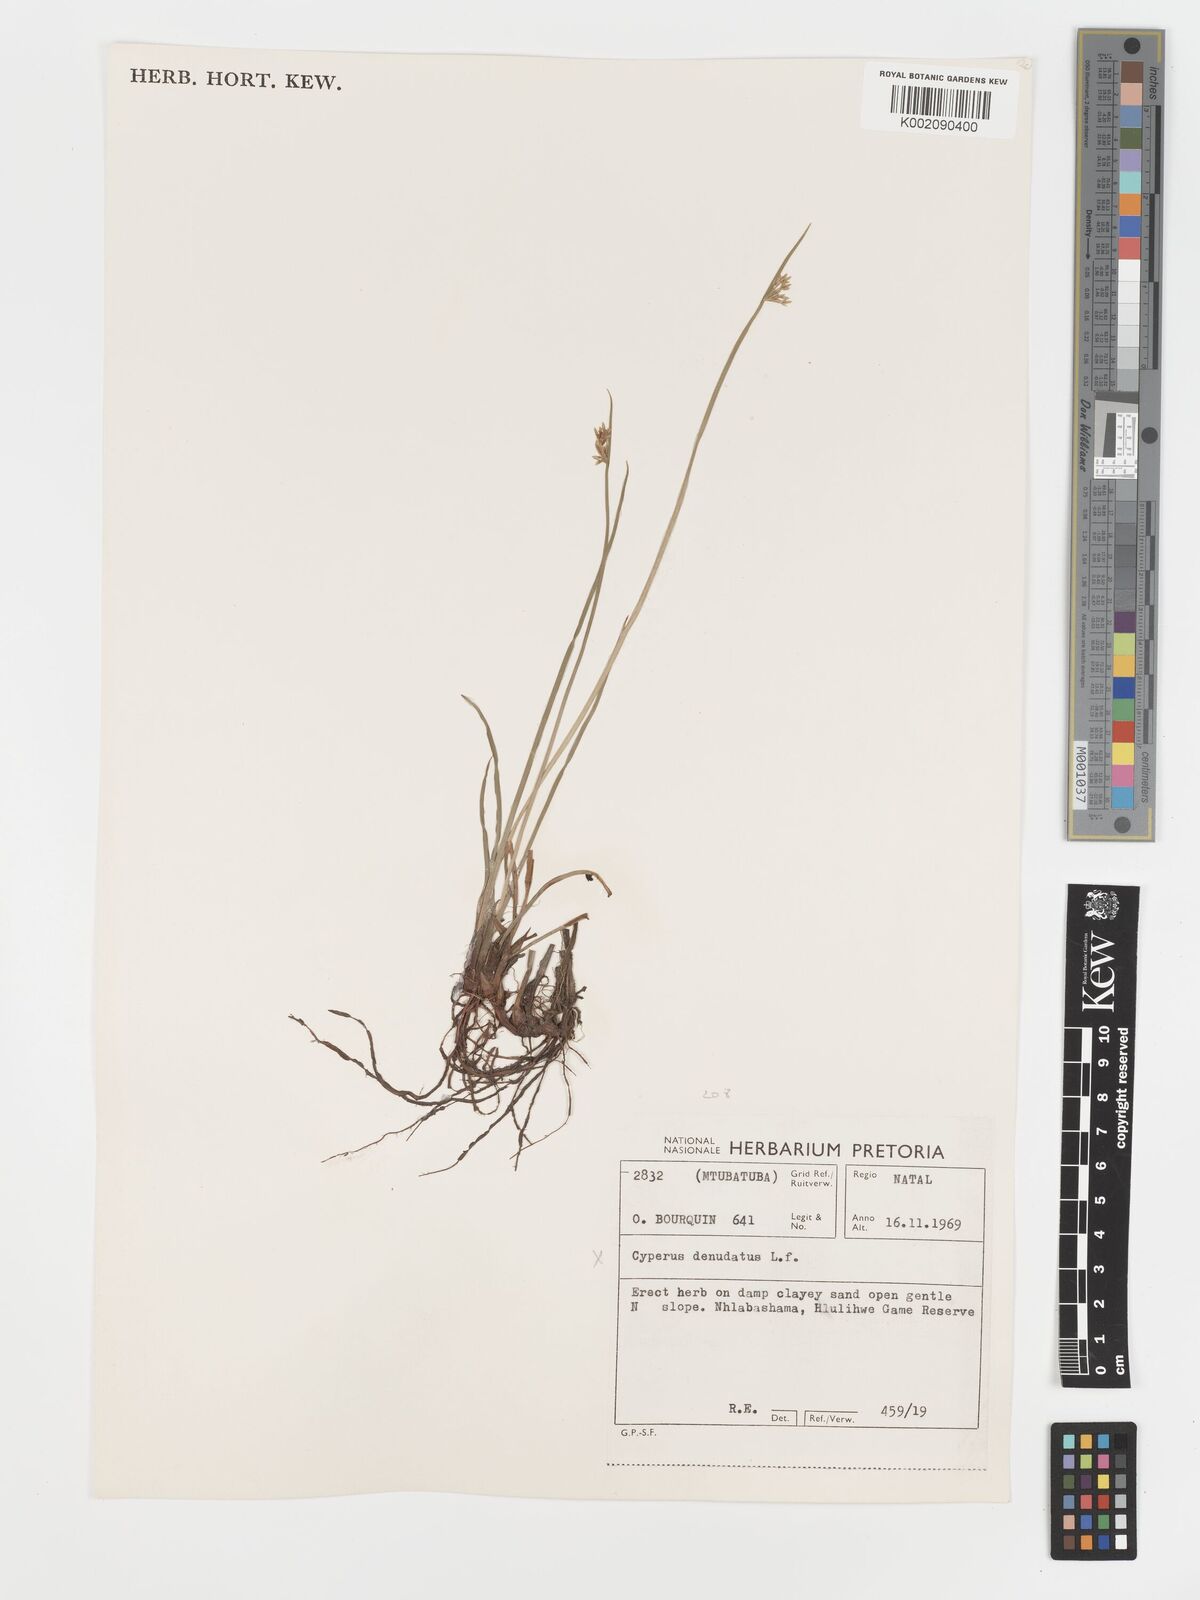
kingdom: Plantae
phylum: Tracheophyta
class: Liliopsida
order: Poales
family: Cyperaceae
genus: Cyperus
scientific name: Cyperus platycaulis
